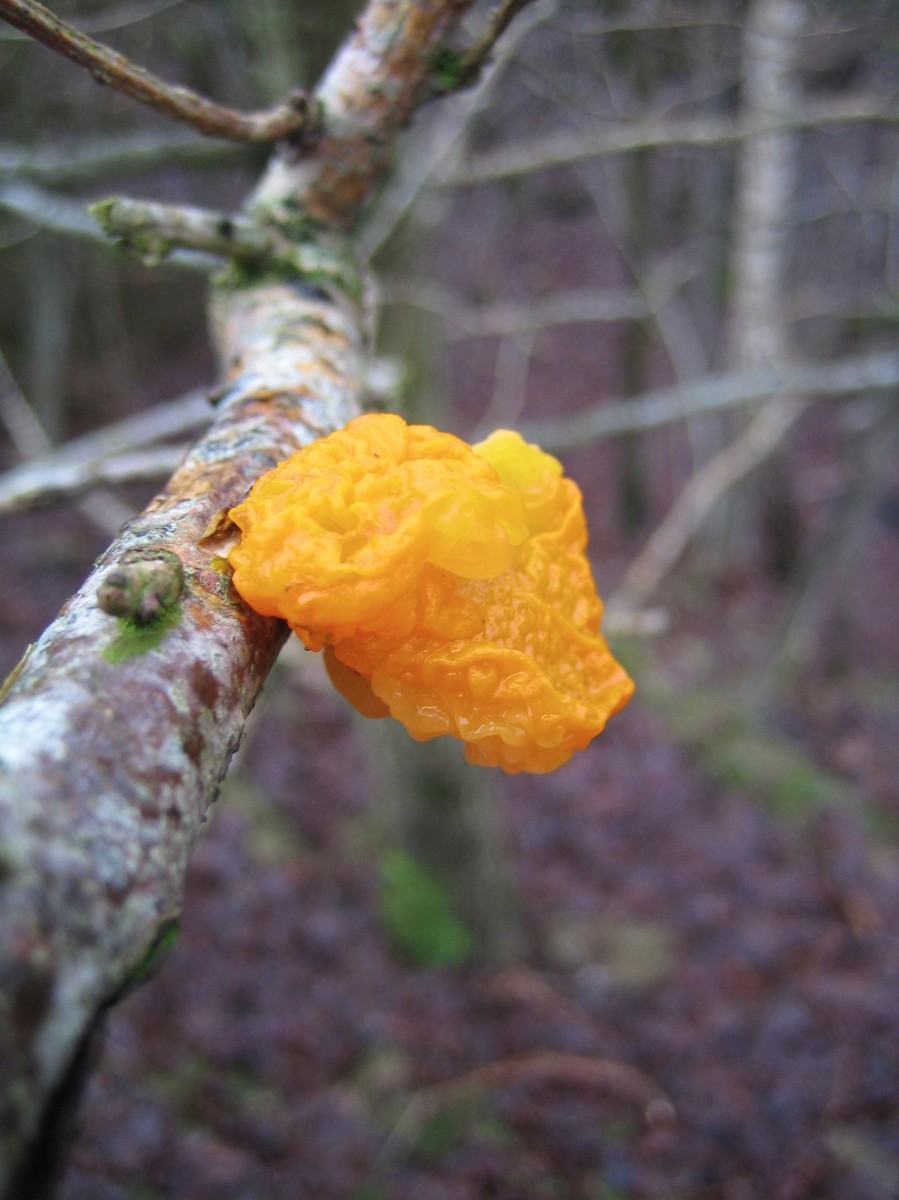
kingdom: Fungi
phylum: Basidiomycota
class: Tremellomycetes
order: Tremellales
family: Tremellaceae
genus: Tremella
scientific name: Tremella mesenterica
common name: gul bævresvamp
